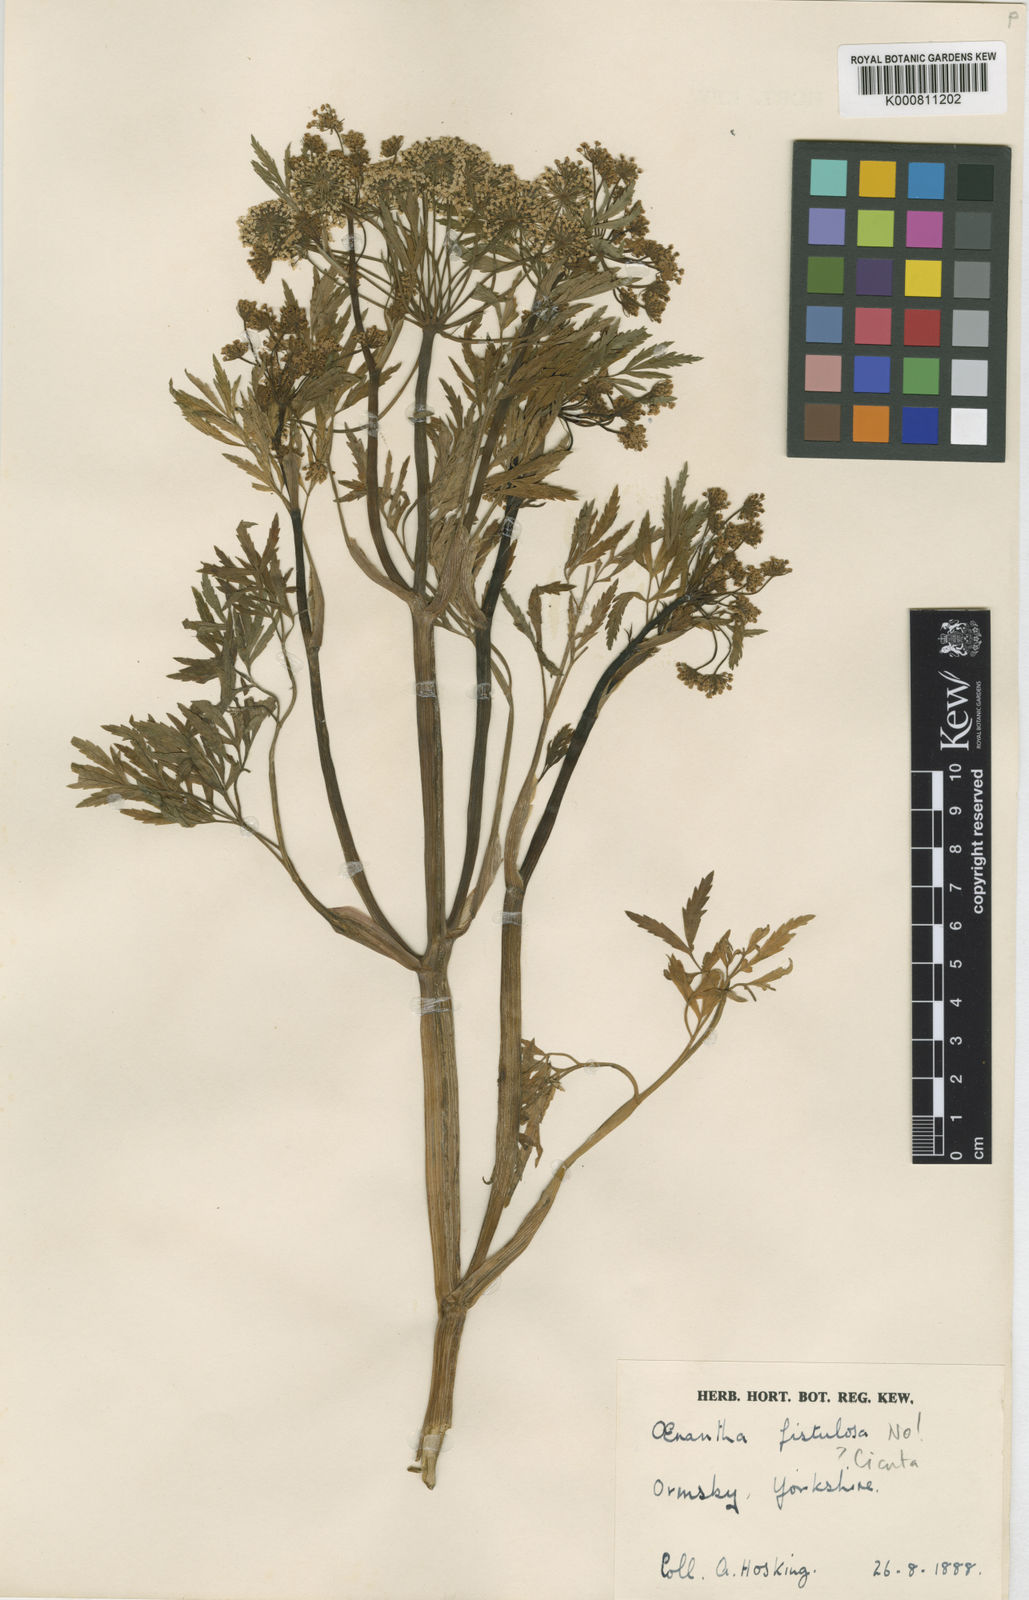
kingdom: Plantae
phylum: Tracheophyta
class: Magnoliopsida
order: Apiales
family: Apiaceae
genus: Oenanthe
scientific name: Oenanthe fistulosa
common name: Tubular water-dropwort
